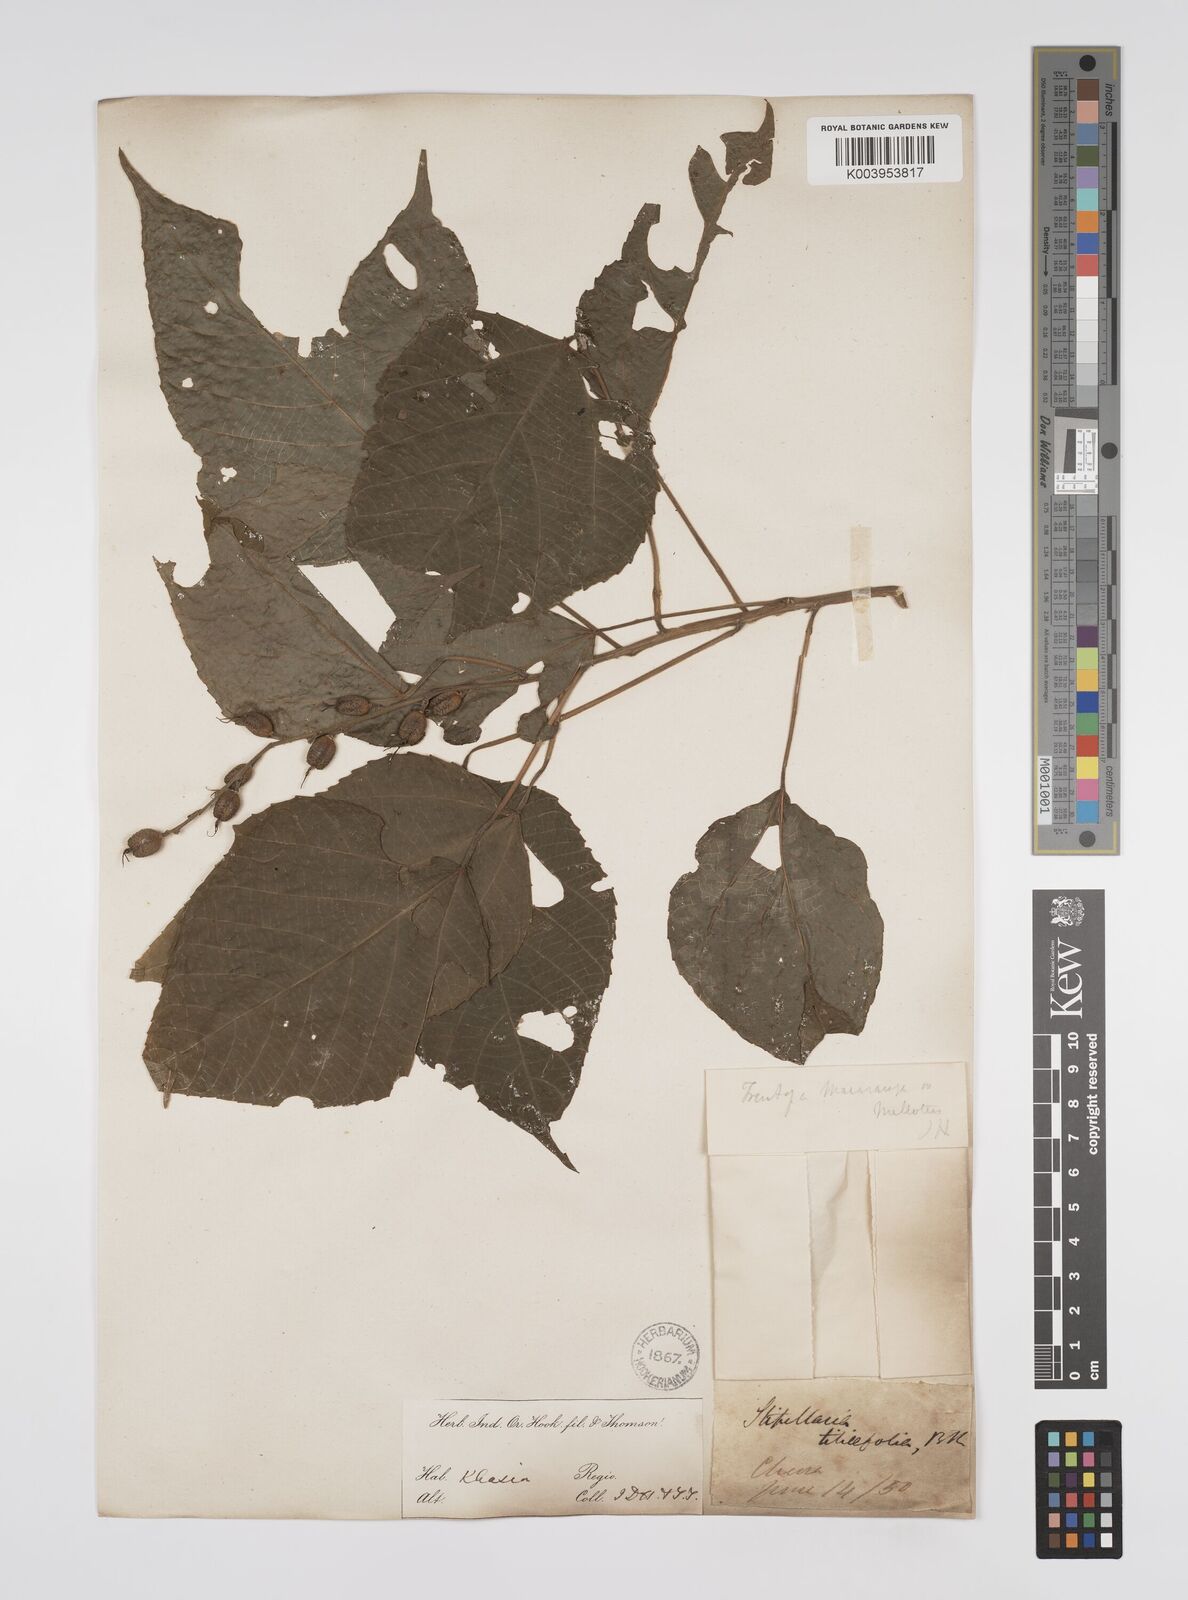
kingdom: Plantae
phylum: Tracheophyta
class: Magnoliopsida
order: Malpighiales
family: Euphorbiaceae
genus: Alchornea
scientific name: Alchornea tiliifolia
